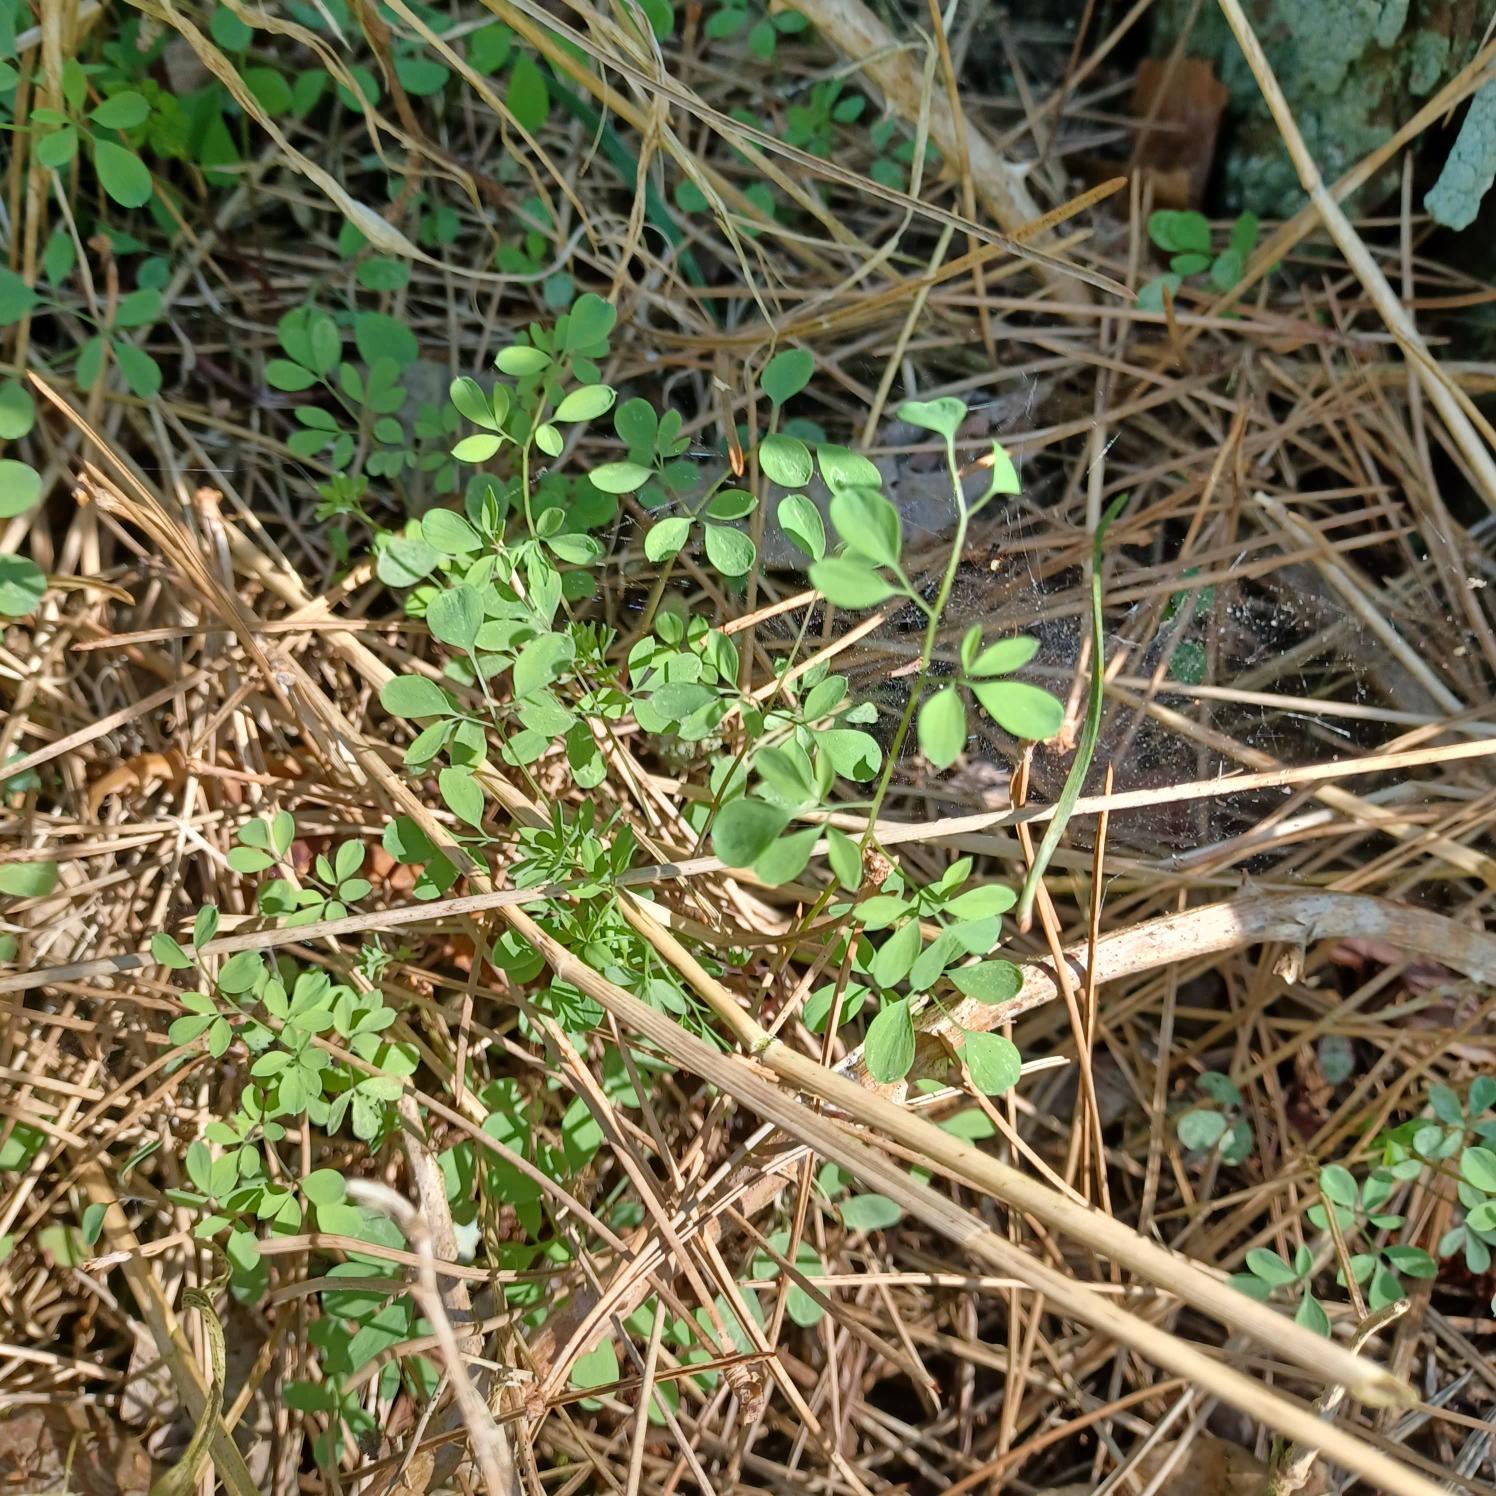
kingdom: Plantae
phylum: Tracheophyta
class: Magnoliopsida
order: Ranunculales
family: Papaveraceae
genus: Ceratocapnos
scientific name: Ceratocapnos claviculata
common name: Klatrende lærkespore
